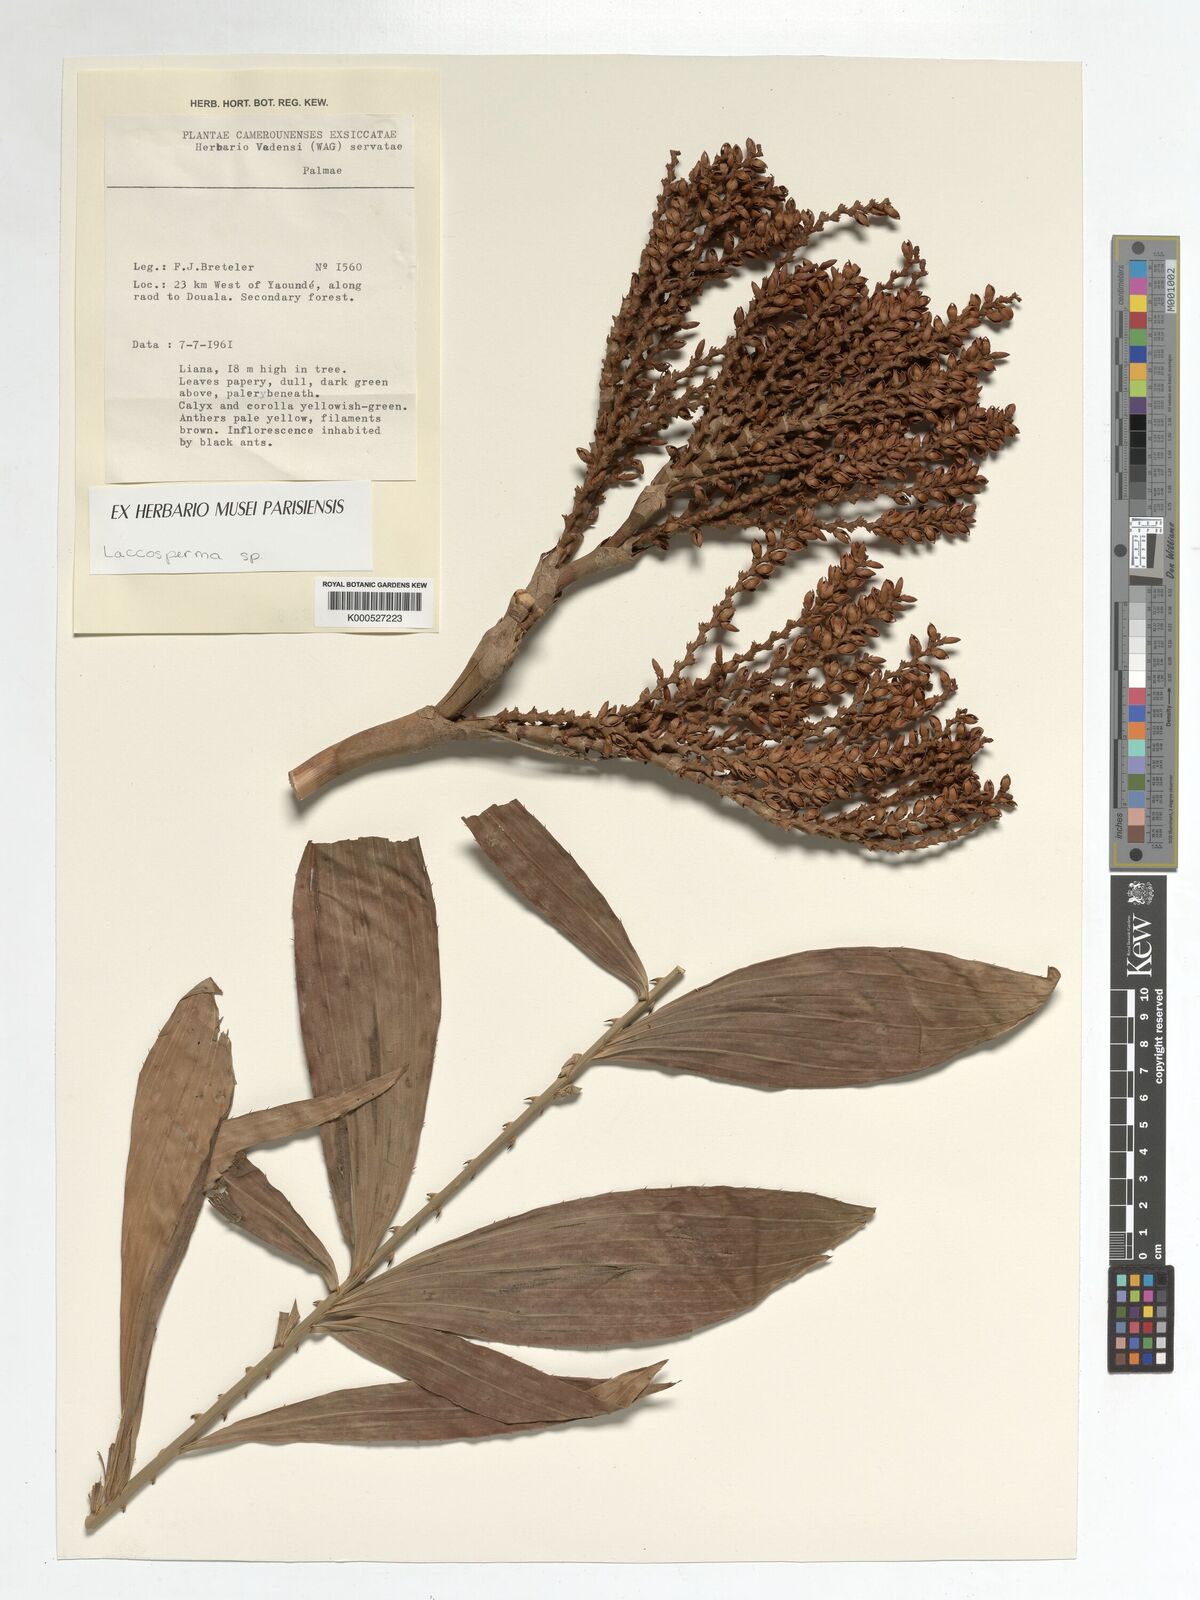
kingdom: Plantae
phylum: Tracheophyta
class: Liliopsida
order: Arecales
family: Arecaceae
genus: Laccosperma
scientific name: Laccosperma
